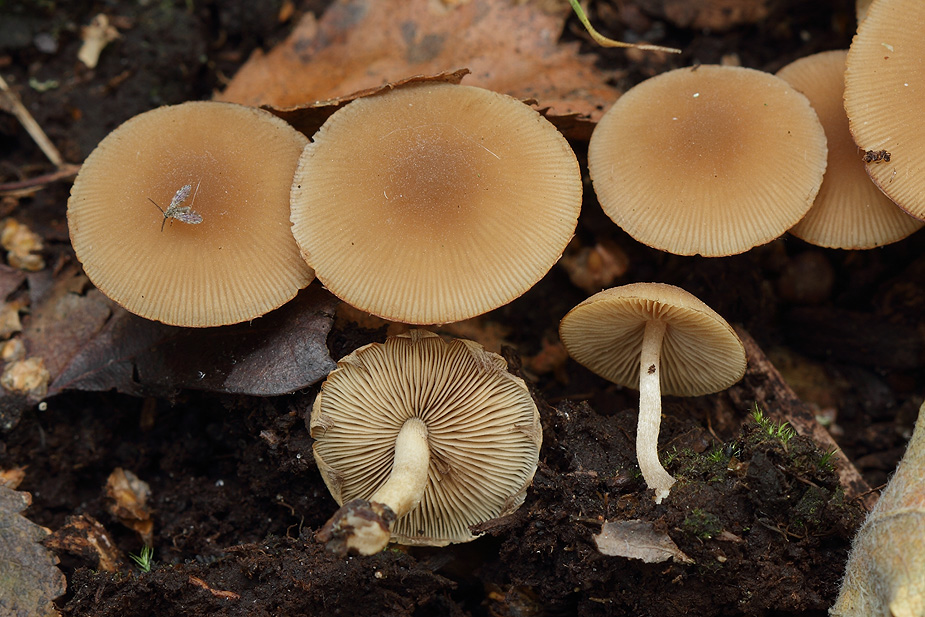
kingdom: Fungi
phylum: Basidiomycota
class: Agaricomycetes
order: Agaricales
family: Psathyrellaceae
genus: Psathyrella
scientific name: Psathyrella piluliformis
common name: lysstokket mørkhat
